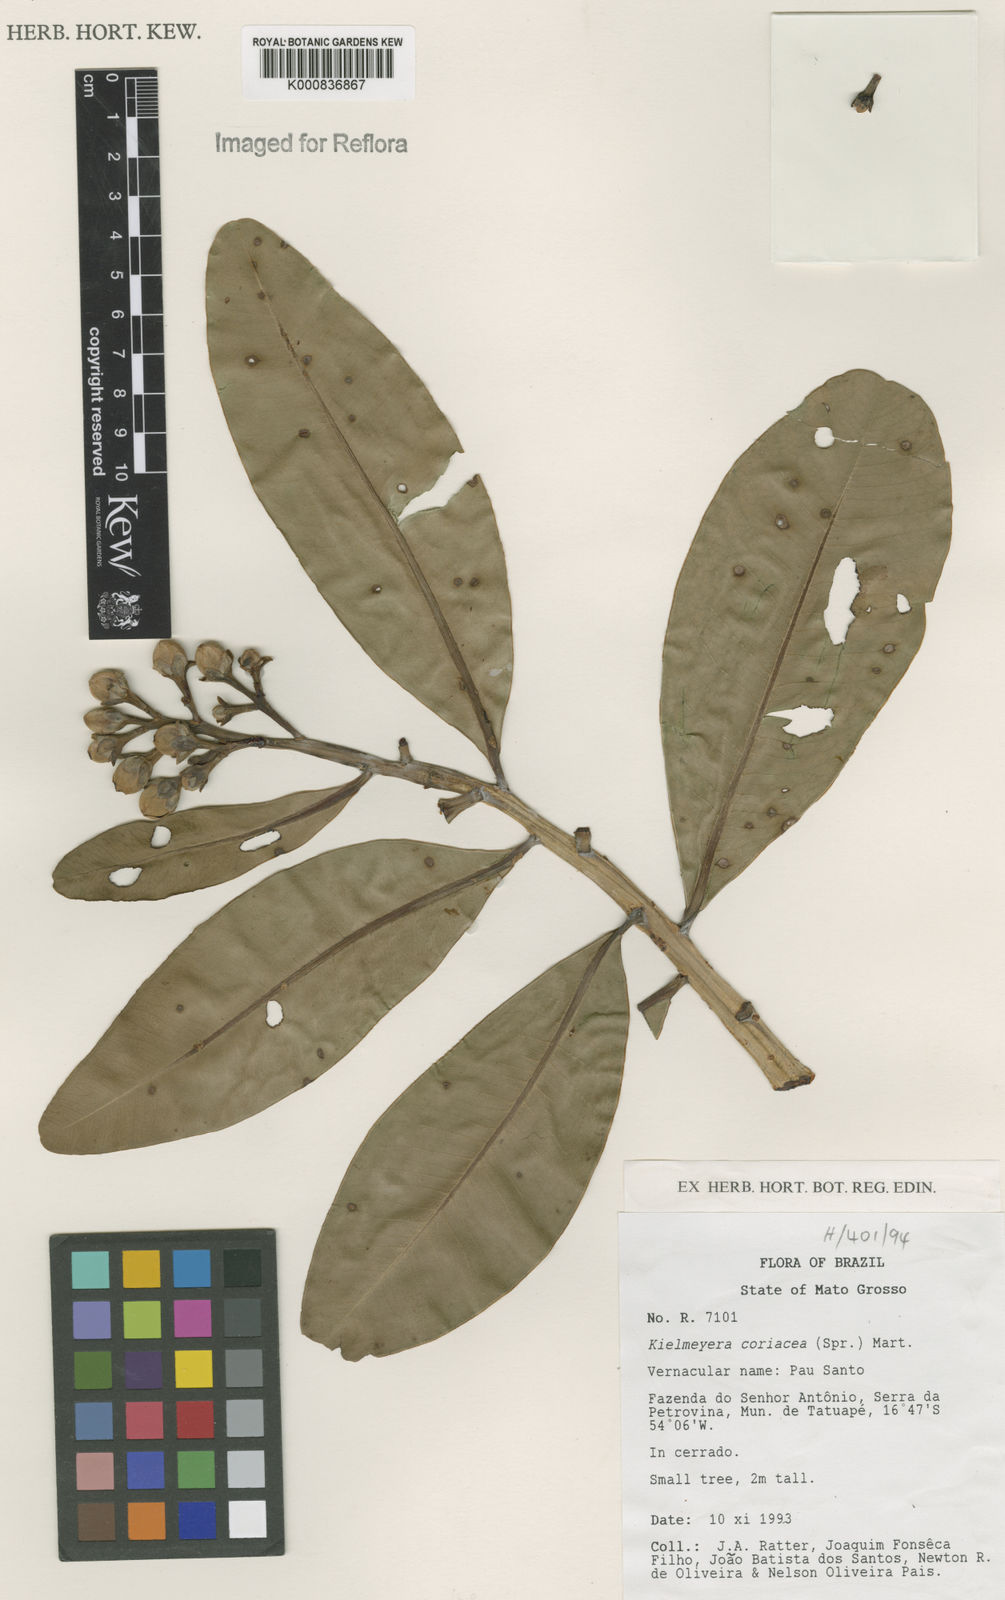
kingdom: Plantae
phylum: Tracheophyta
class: Magnoliopsida
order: Malpighiales
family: Calophyllaceae
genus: Kielmeyera
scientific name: Kielmeyera coriacea
